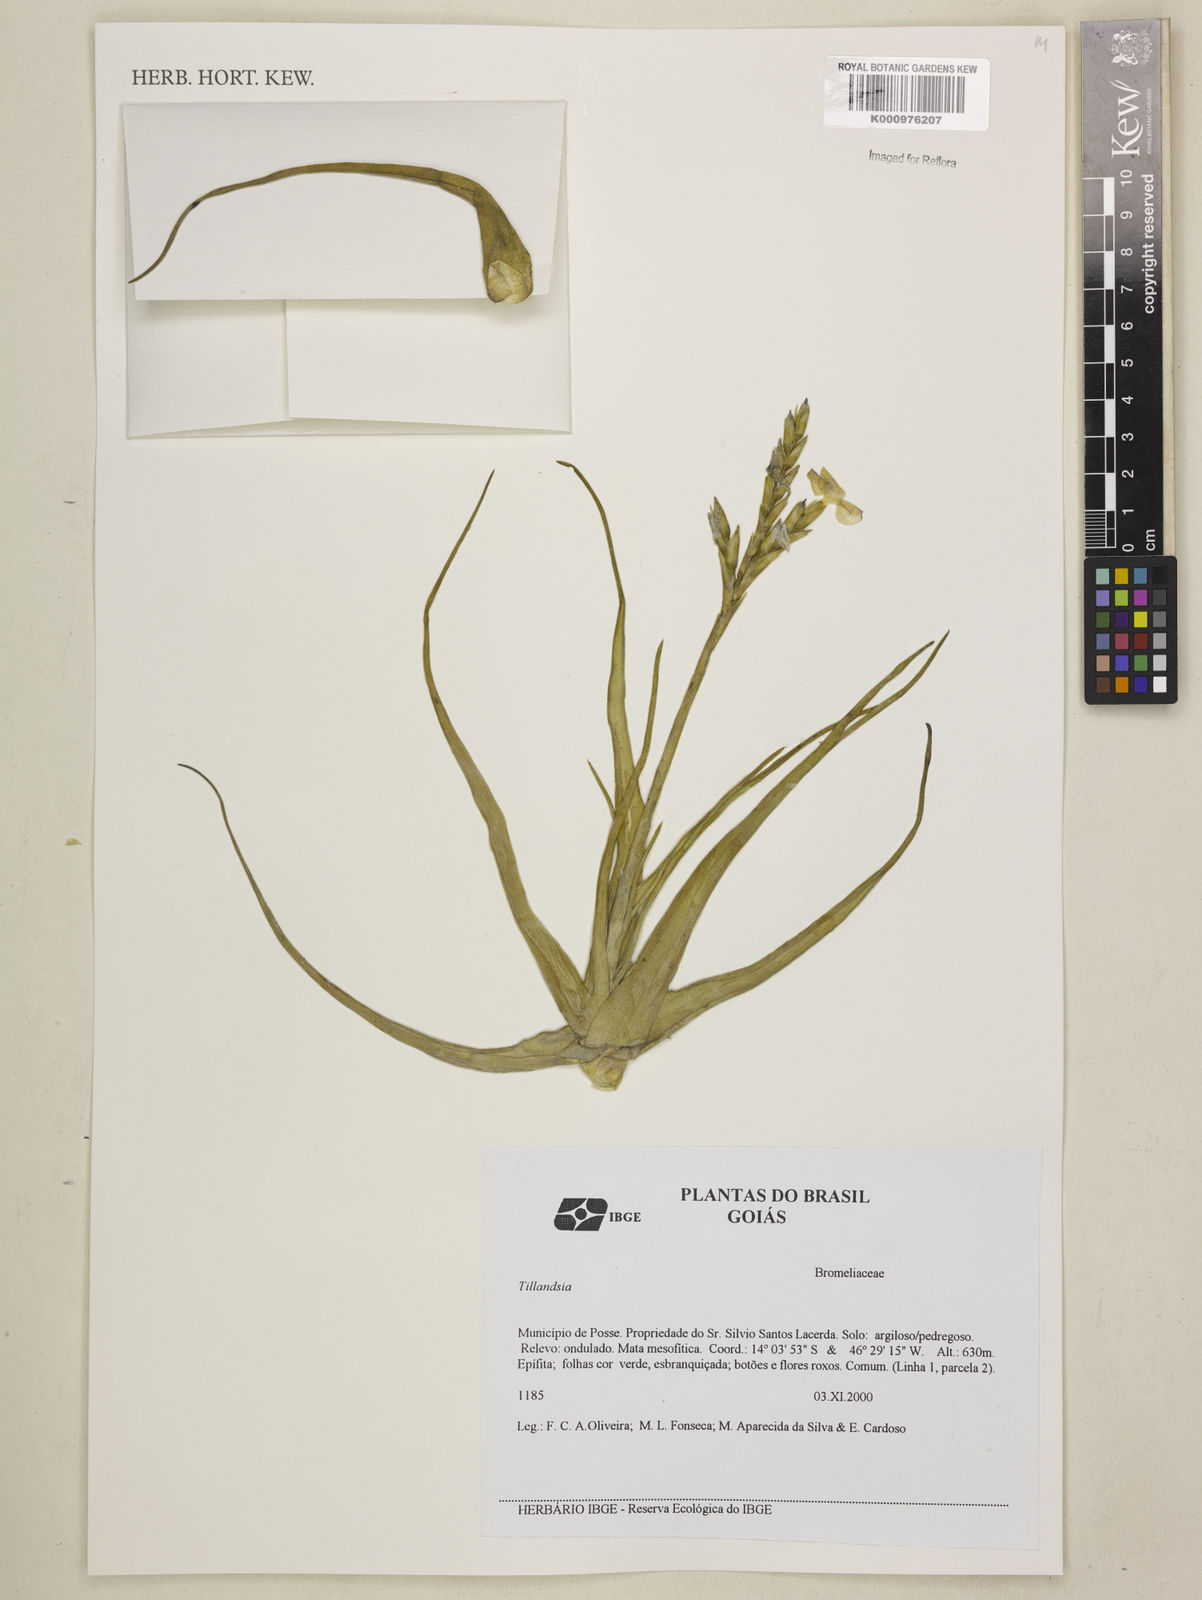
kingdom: Plantae
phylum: Tracheophyta
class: Liliopsida
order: Poales
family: Bromeliaceae
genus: Tillandsia
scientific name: Tillandsia
